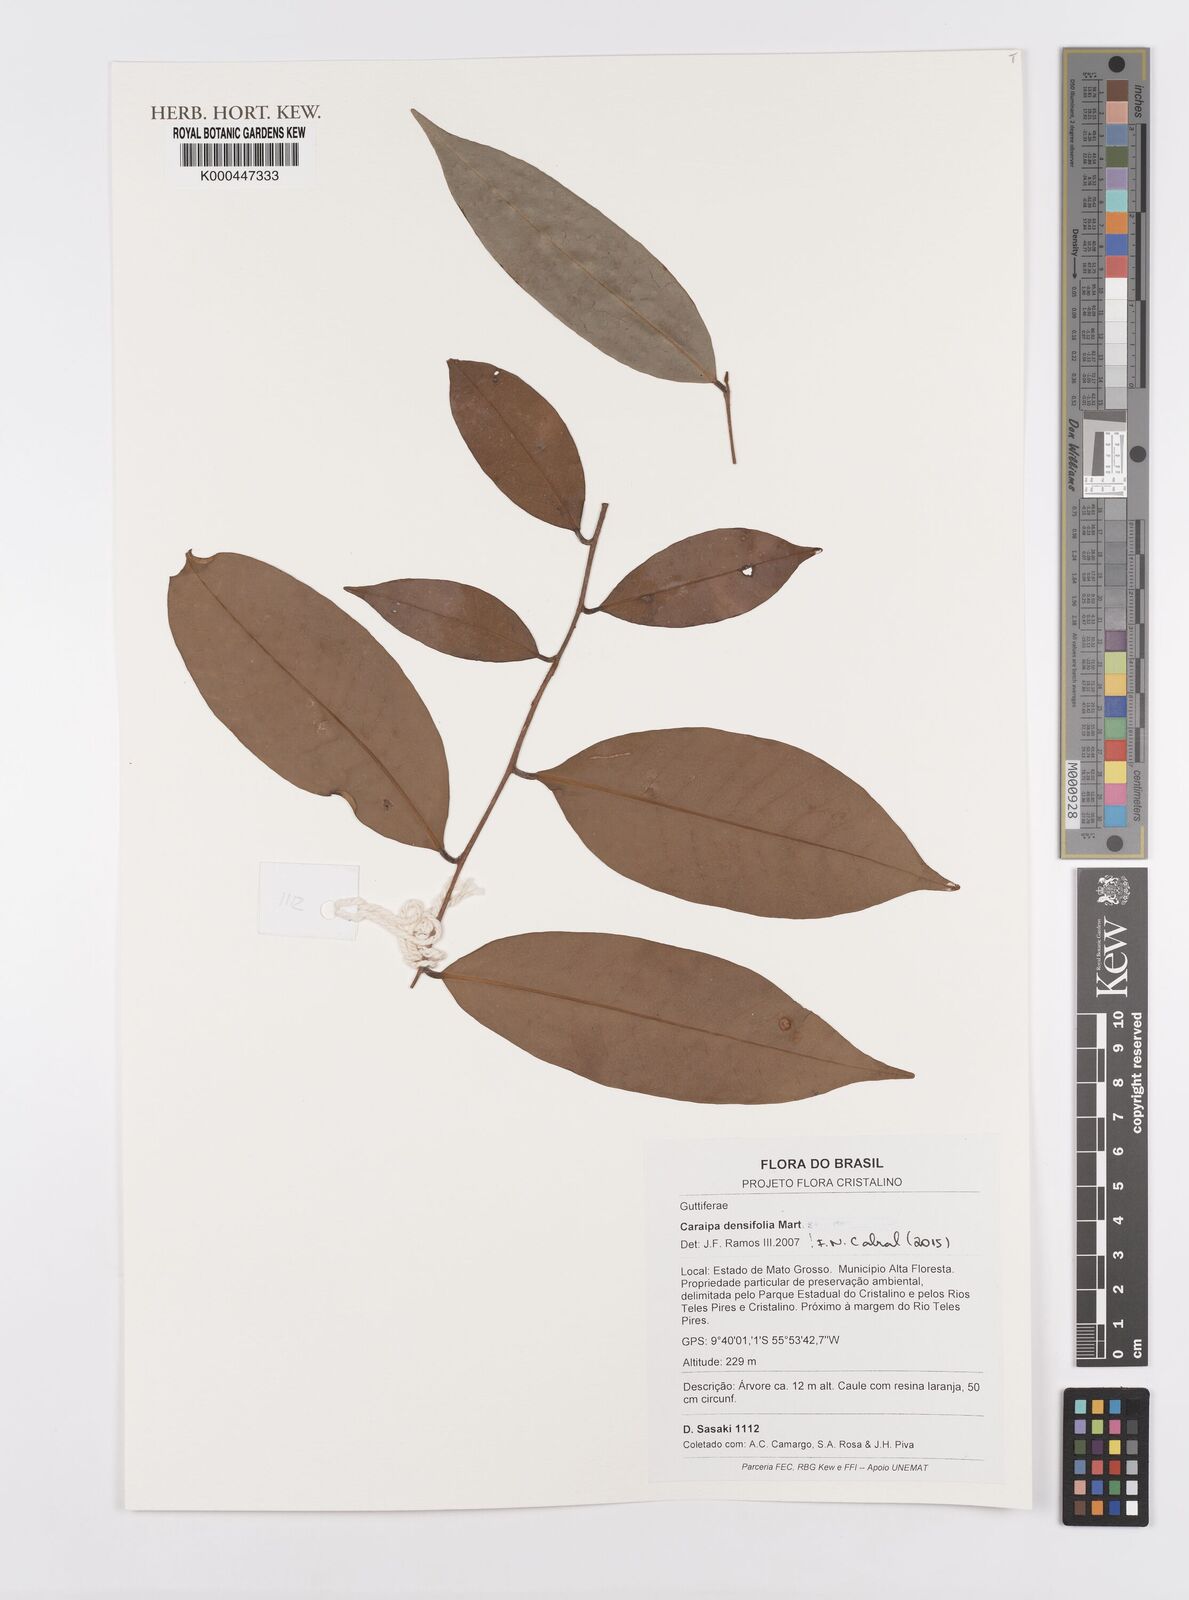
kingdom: Plantae
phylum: Tracheophyta
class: Magnoliopsida
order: Malpighiales
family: Calophyllaceae
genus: Caraipa
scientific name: Caraipa densifolia
